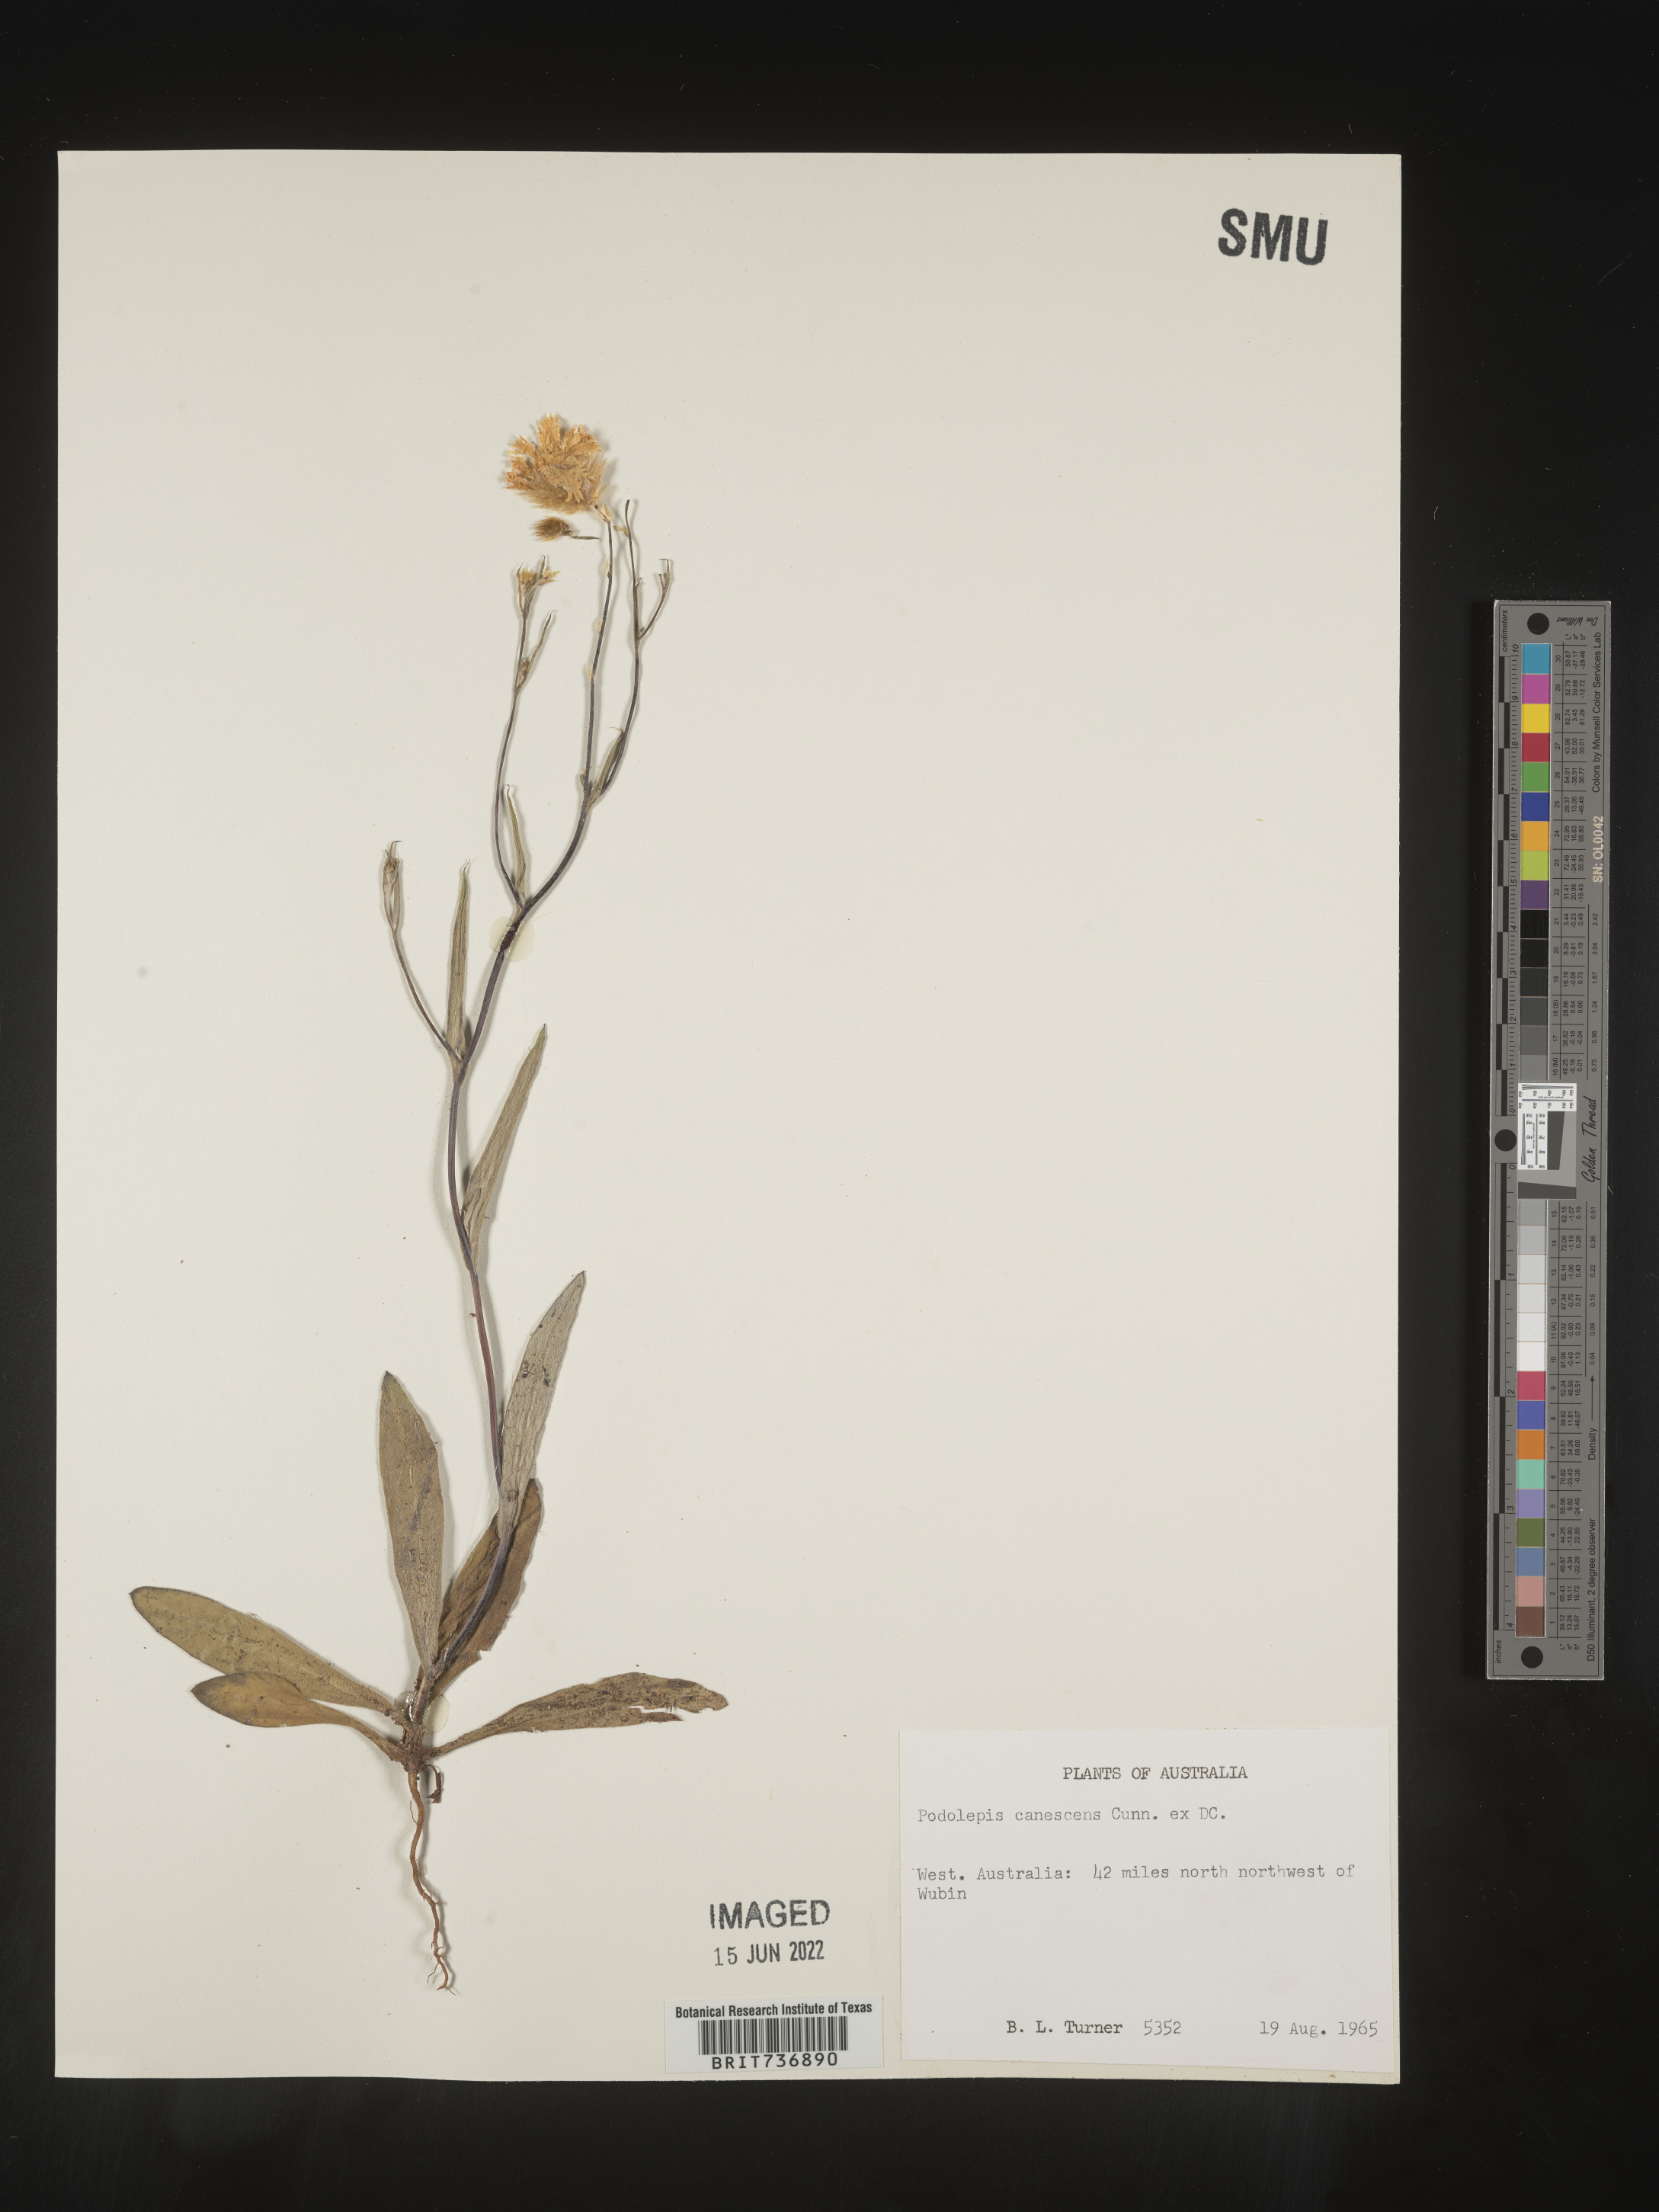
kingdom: Plantae
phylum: Tracheophyta
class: Magnoliopsida
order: Asterales
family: Asteraceae
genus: Podolepis
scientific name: Podolepis
